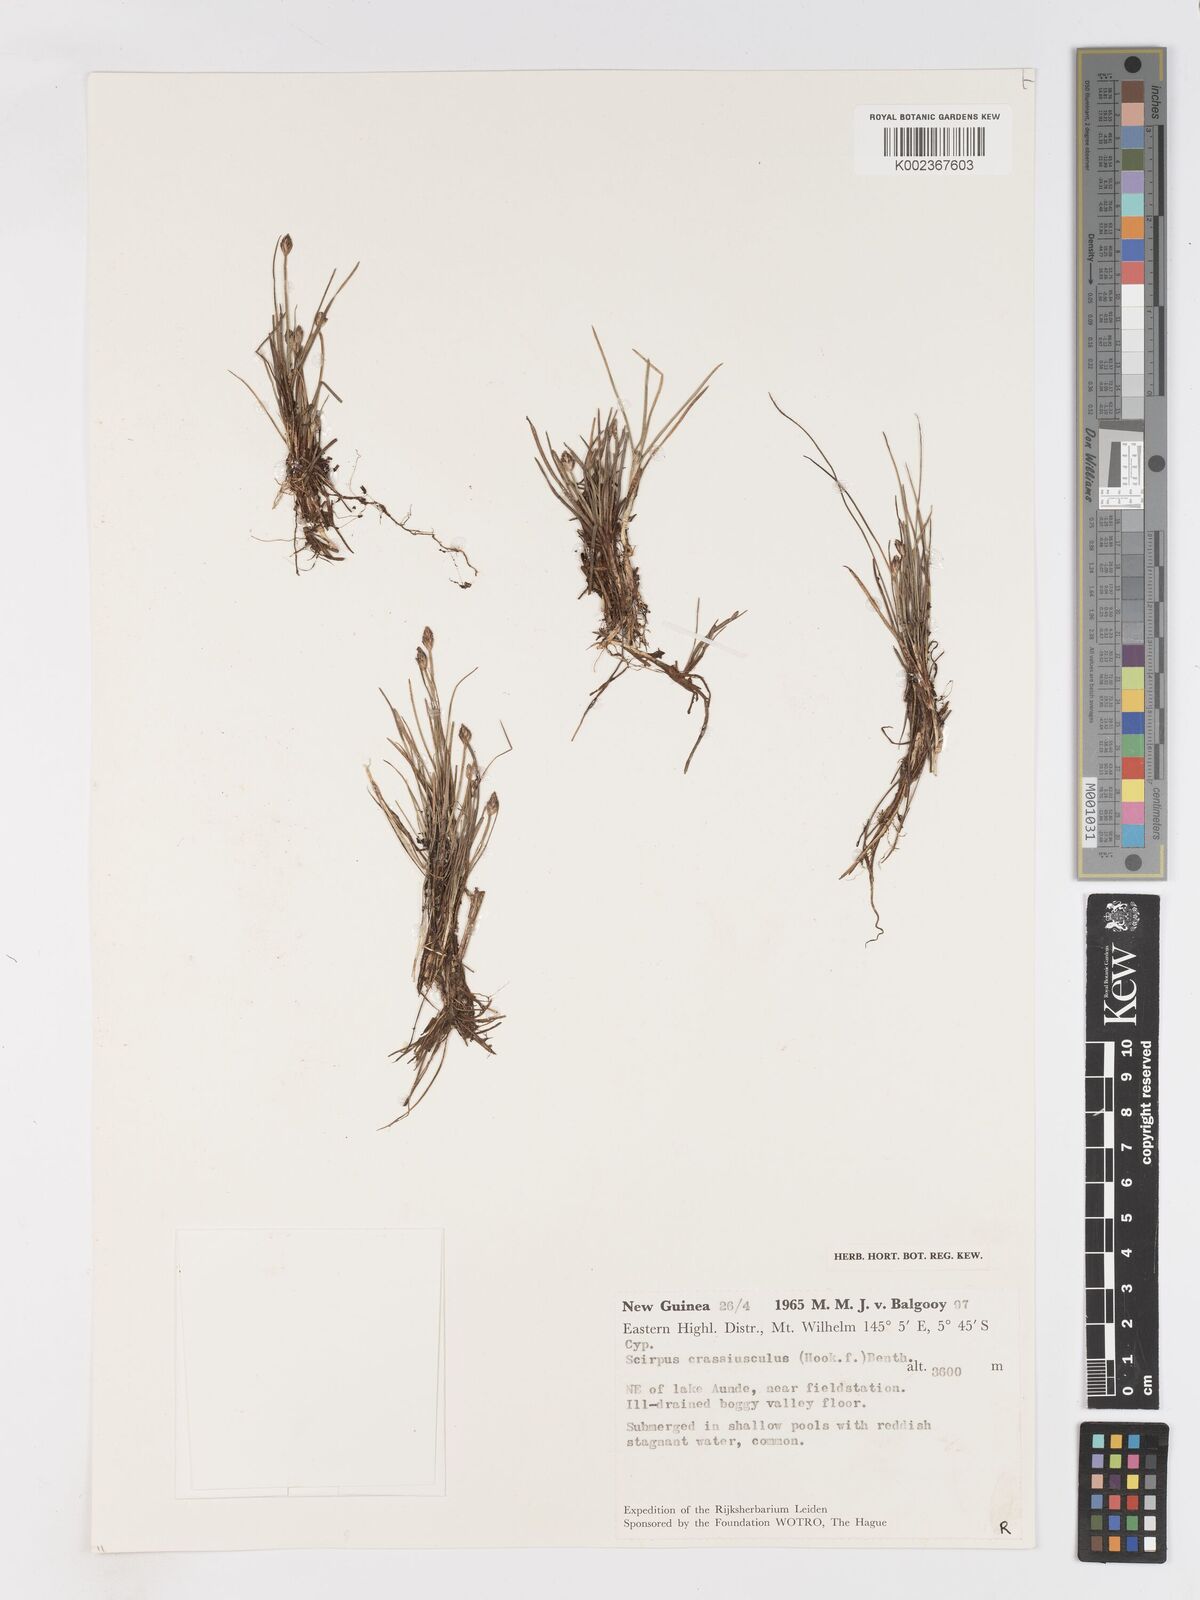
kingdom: Plantae
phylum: Tracheophyta
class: Liliopsida
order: Poales
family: Cyperaceae
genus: Isolepis
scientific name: Isolepis crassiuscula
